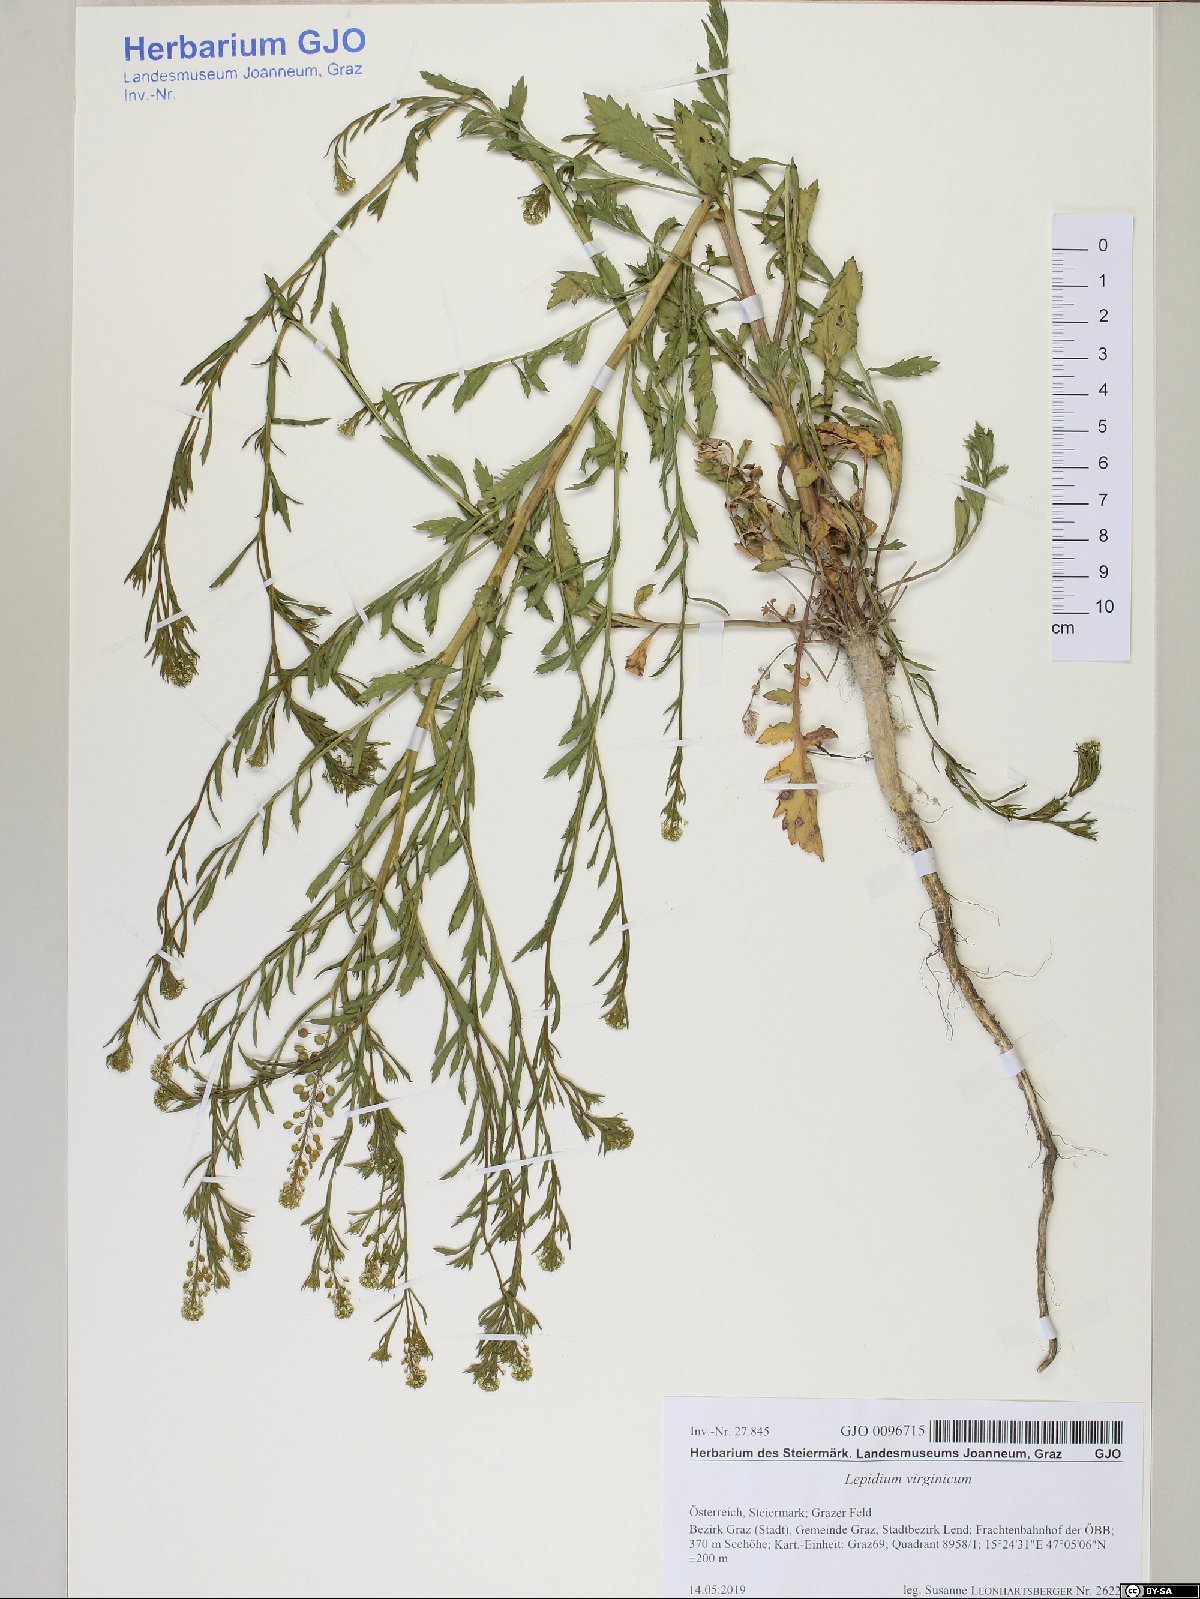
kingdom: Plantae
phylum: Tracheophyta
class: Magnoliopsida
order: Brassicales
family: Brassicaceae
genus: Lepidium
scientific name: Lepidium virginicum
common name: Least pepperwort
